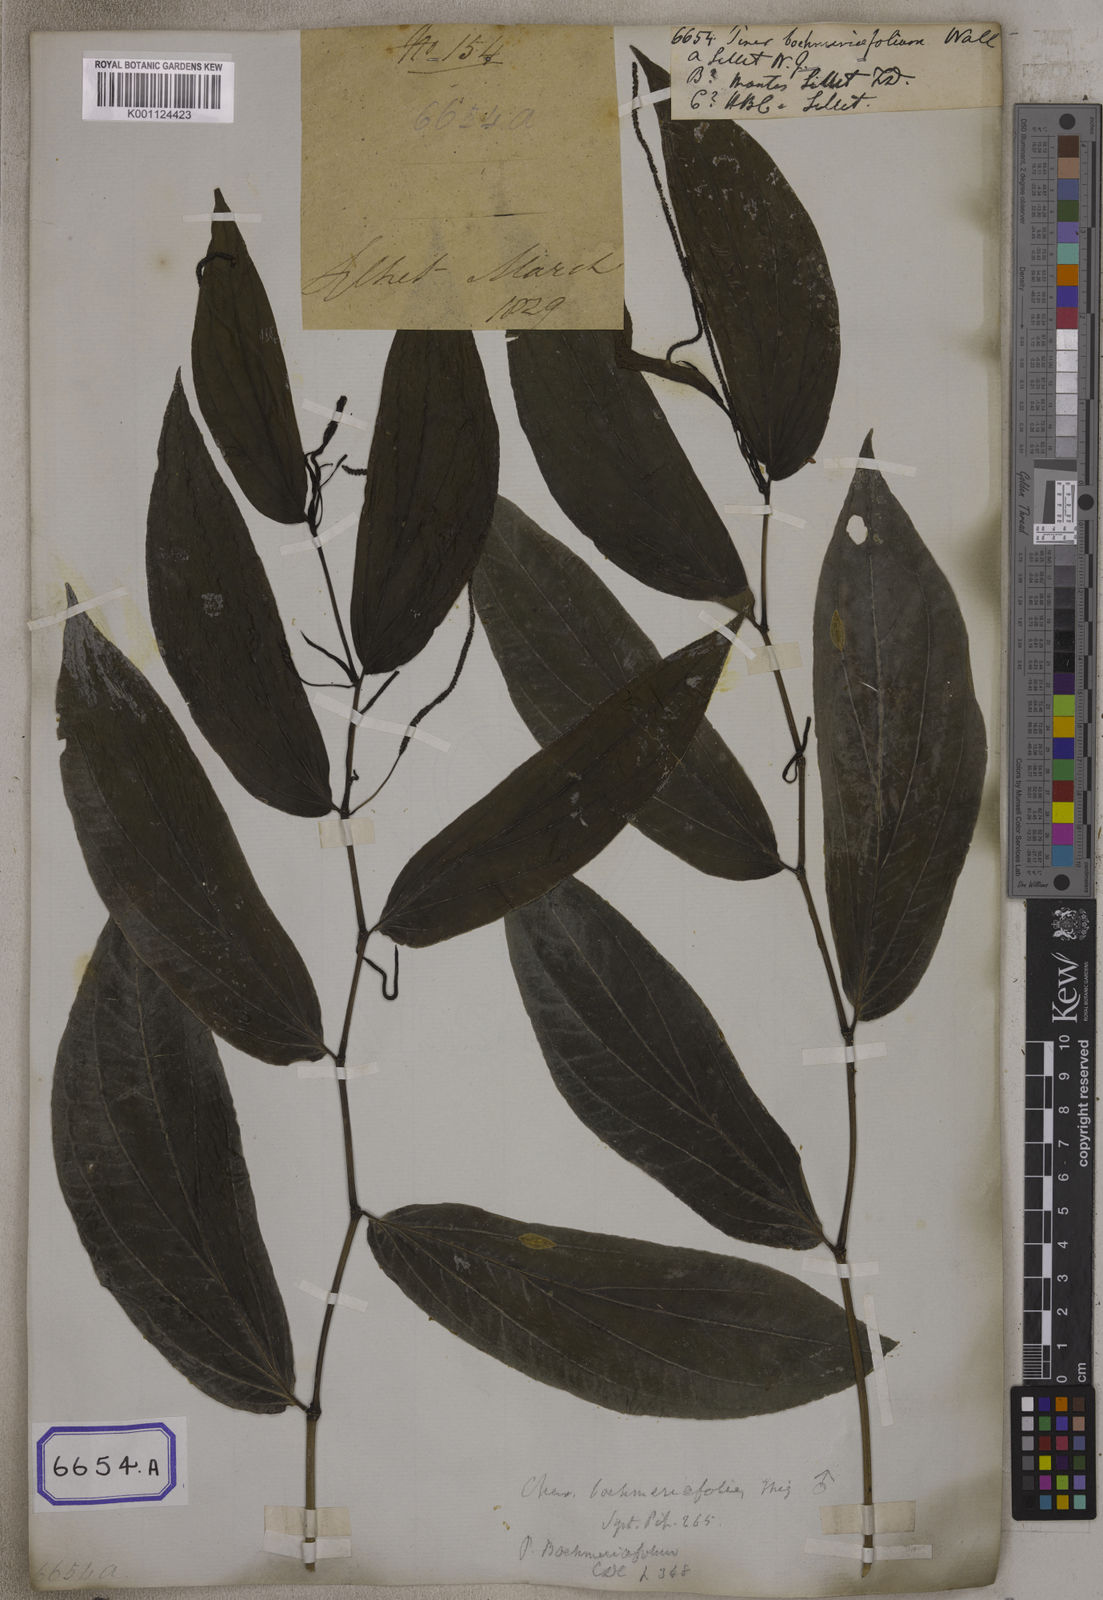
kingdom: Plantae
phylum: Tracheophyta
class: Magnoliopsida
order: Piperales
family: Piperaceae
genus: Piper
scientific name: Piper
